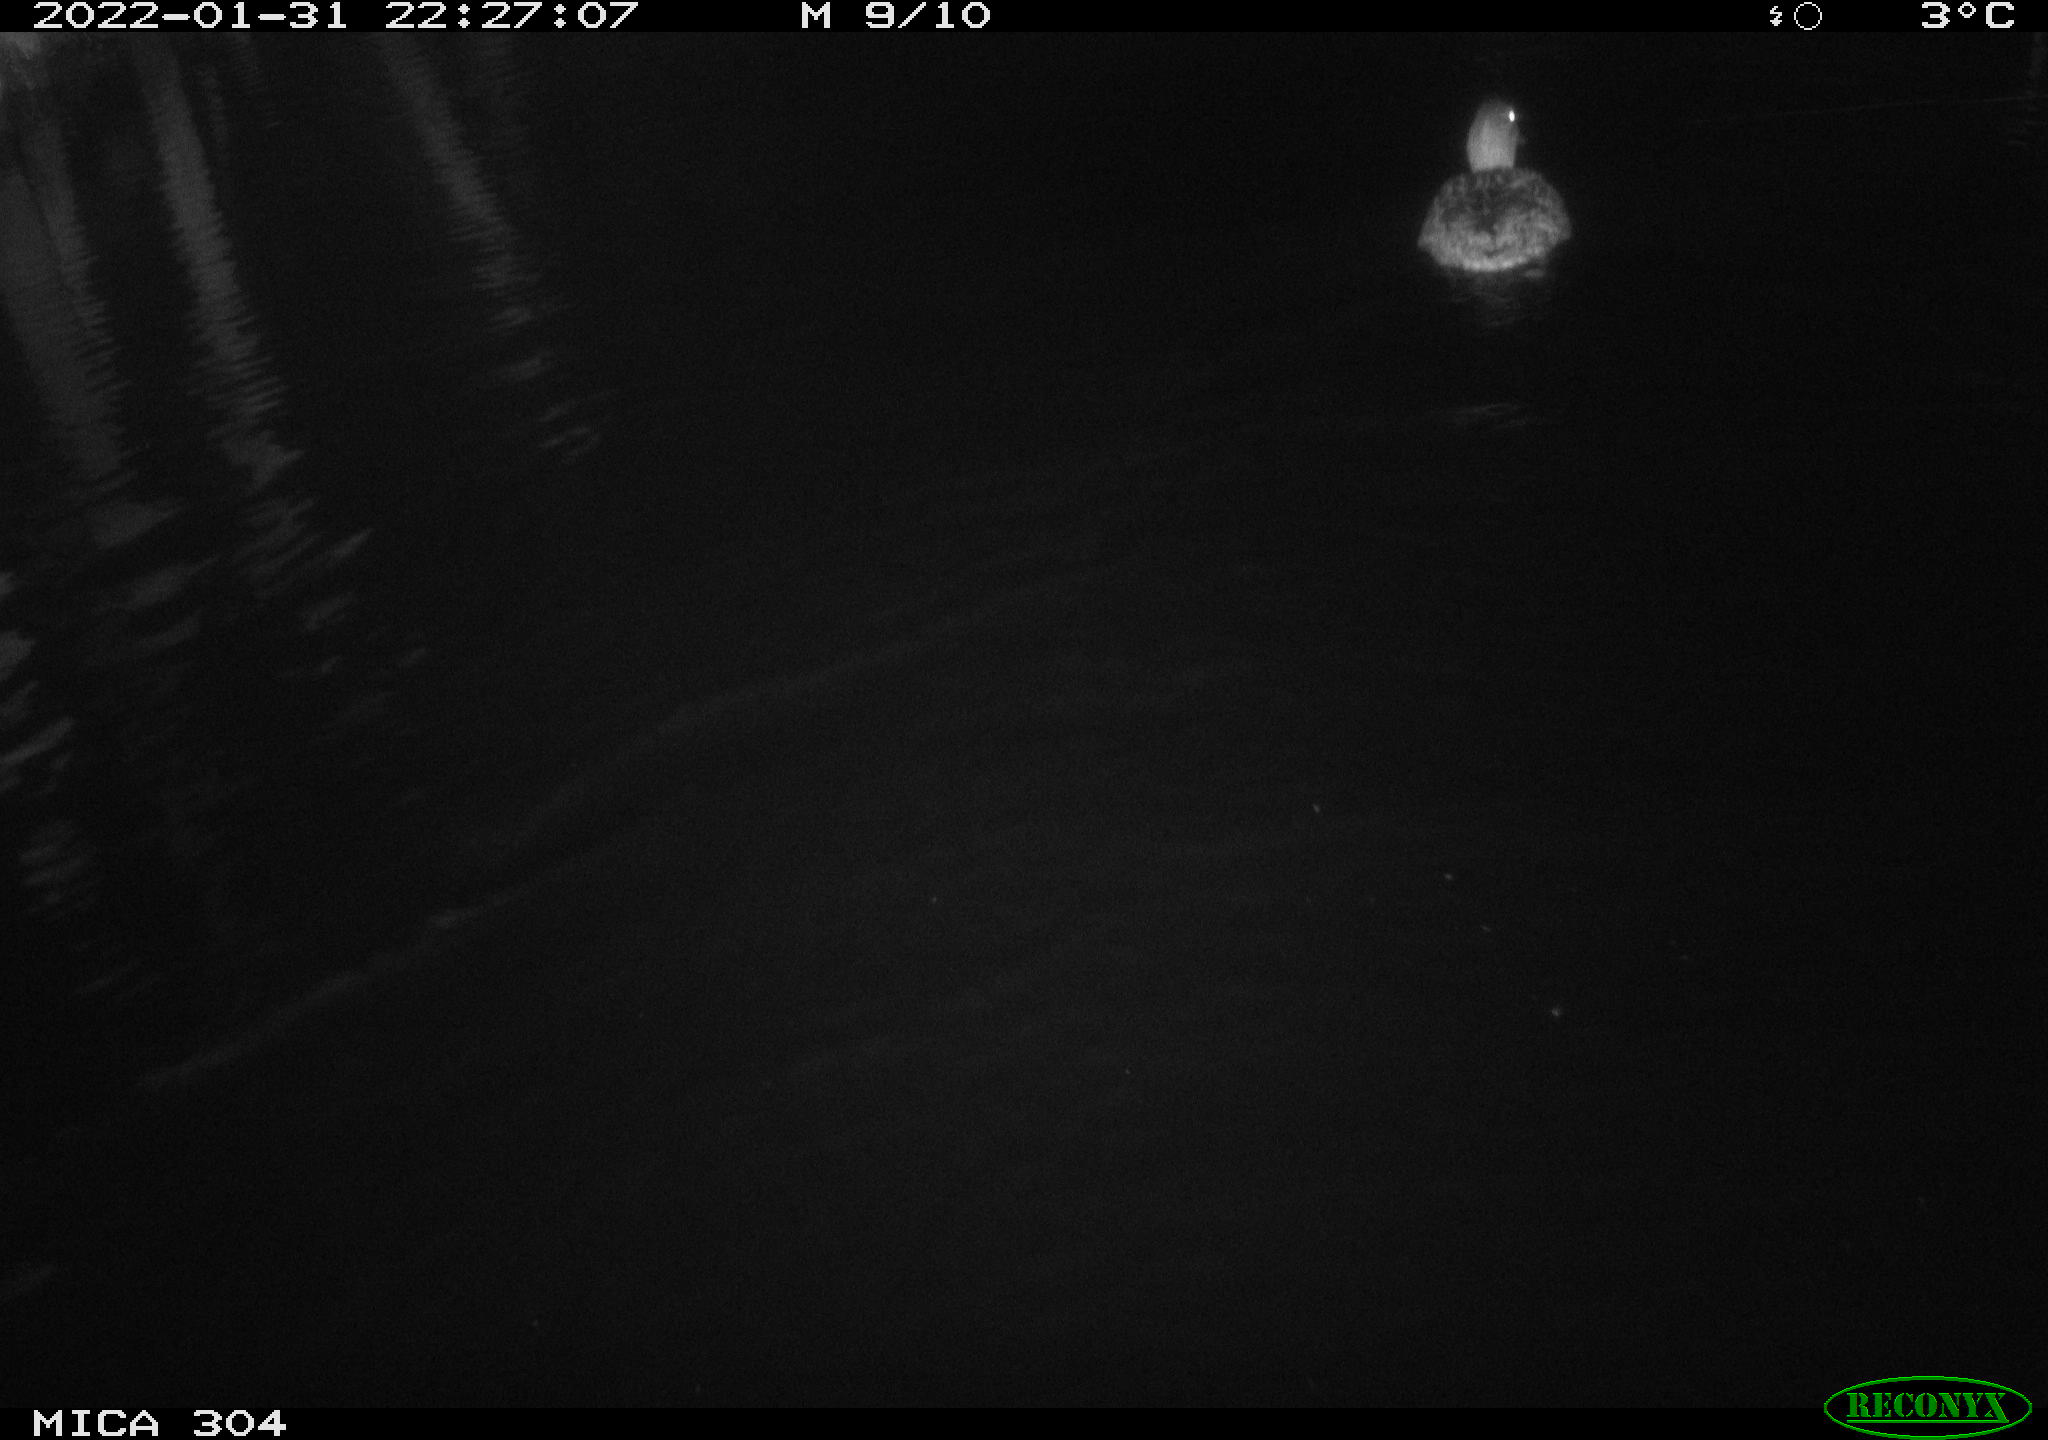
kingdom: Animalia
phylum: Chordata
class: Aves
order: Anseriformes
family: Anatidae
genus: Anas
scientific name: Anas
